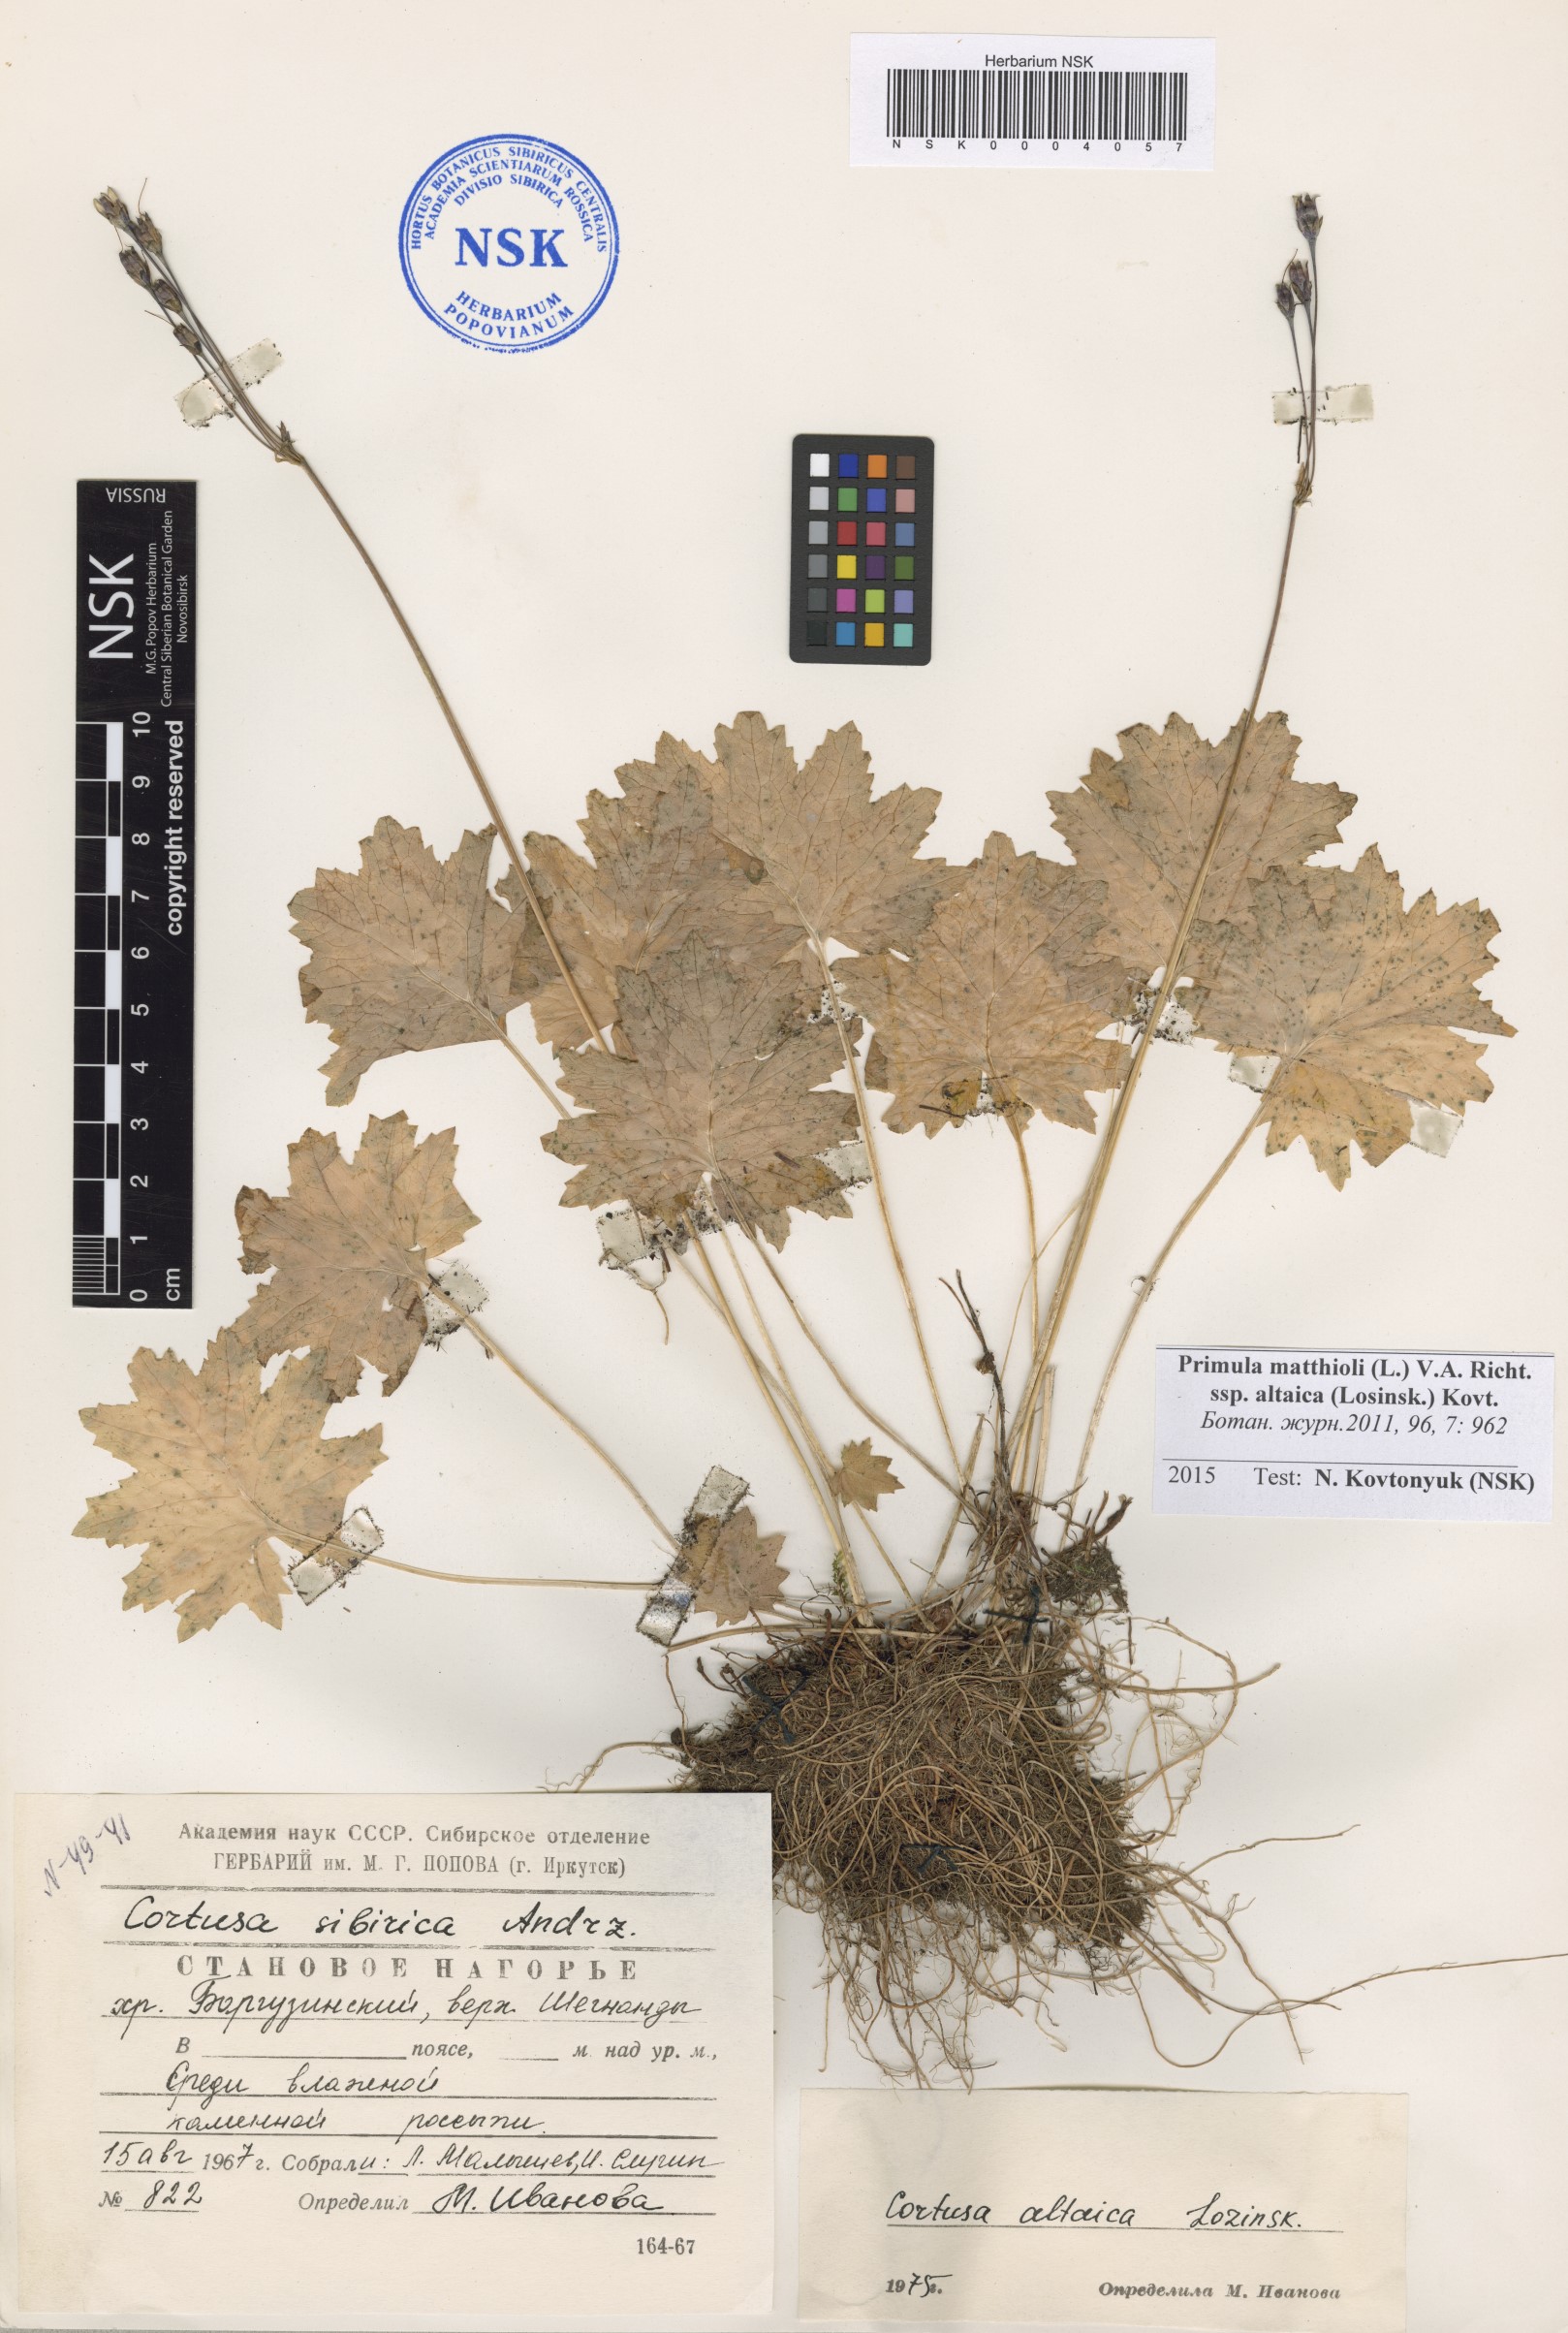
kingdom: Plantae
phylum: Tracheophyta
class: Magnoliopsida
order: Ericales
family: Primulaceae
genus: Primula
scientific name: Primula matthioli
